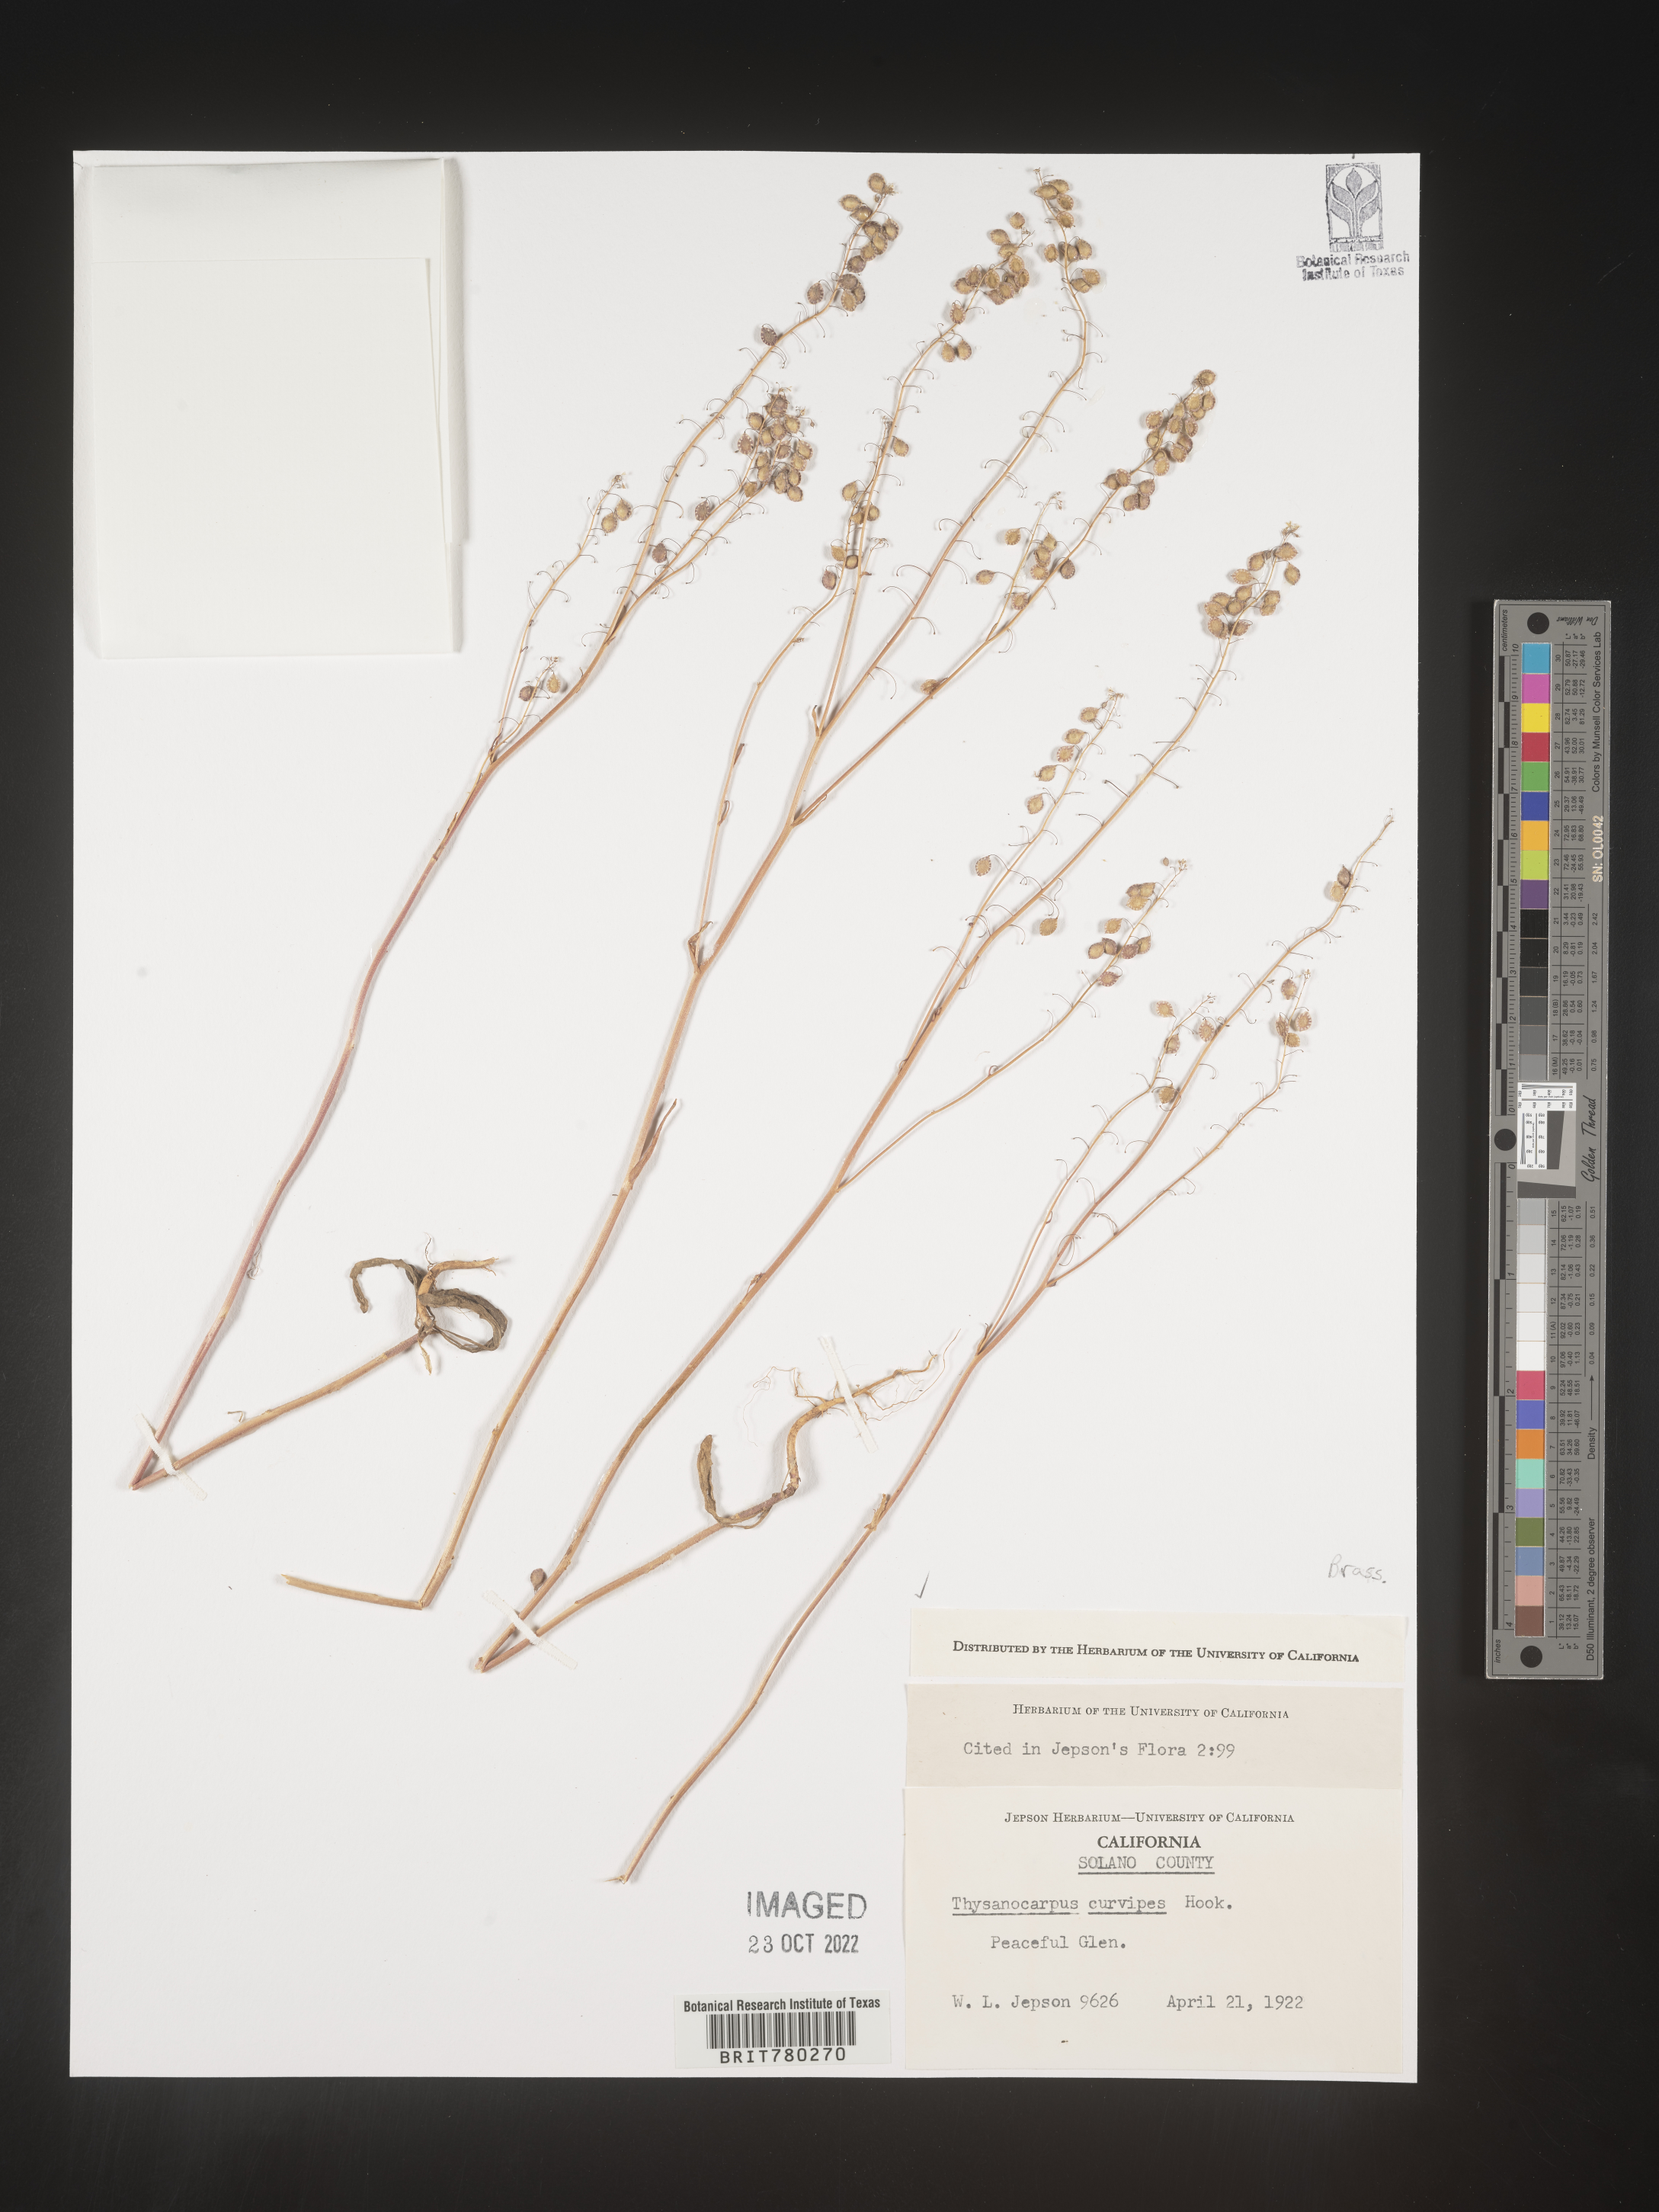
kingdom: Plantae
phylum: Tracheophyta
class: Magnoliopsida
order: Brassicales
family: Brassicaceae
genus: Thysanocarpus
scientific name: Thysanocarpus
